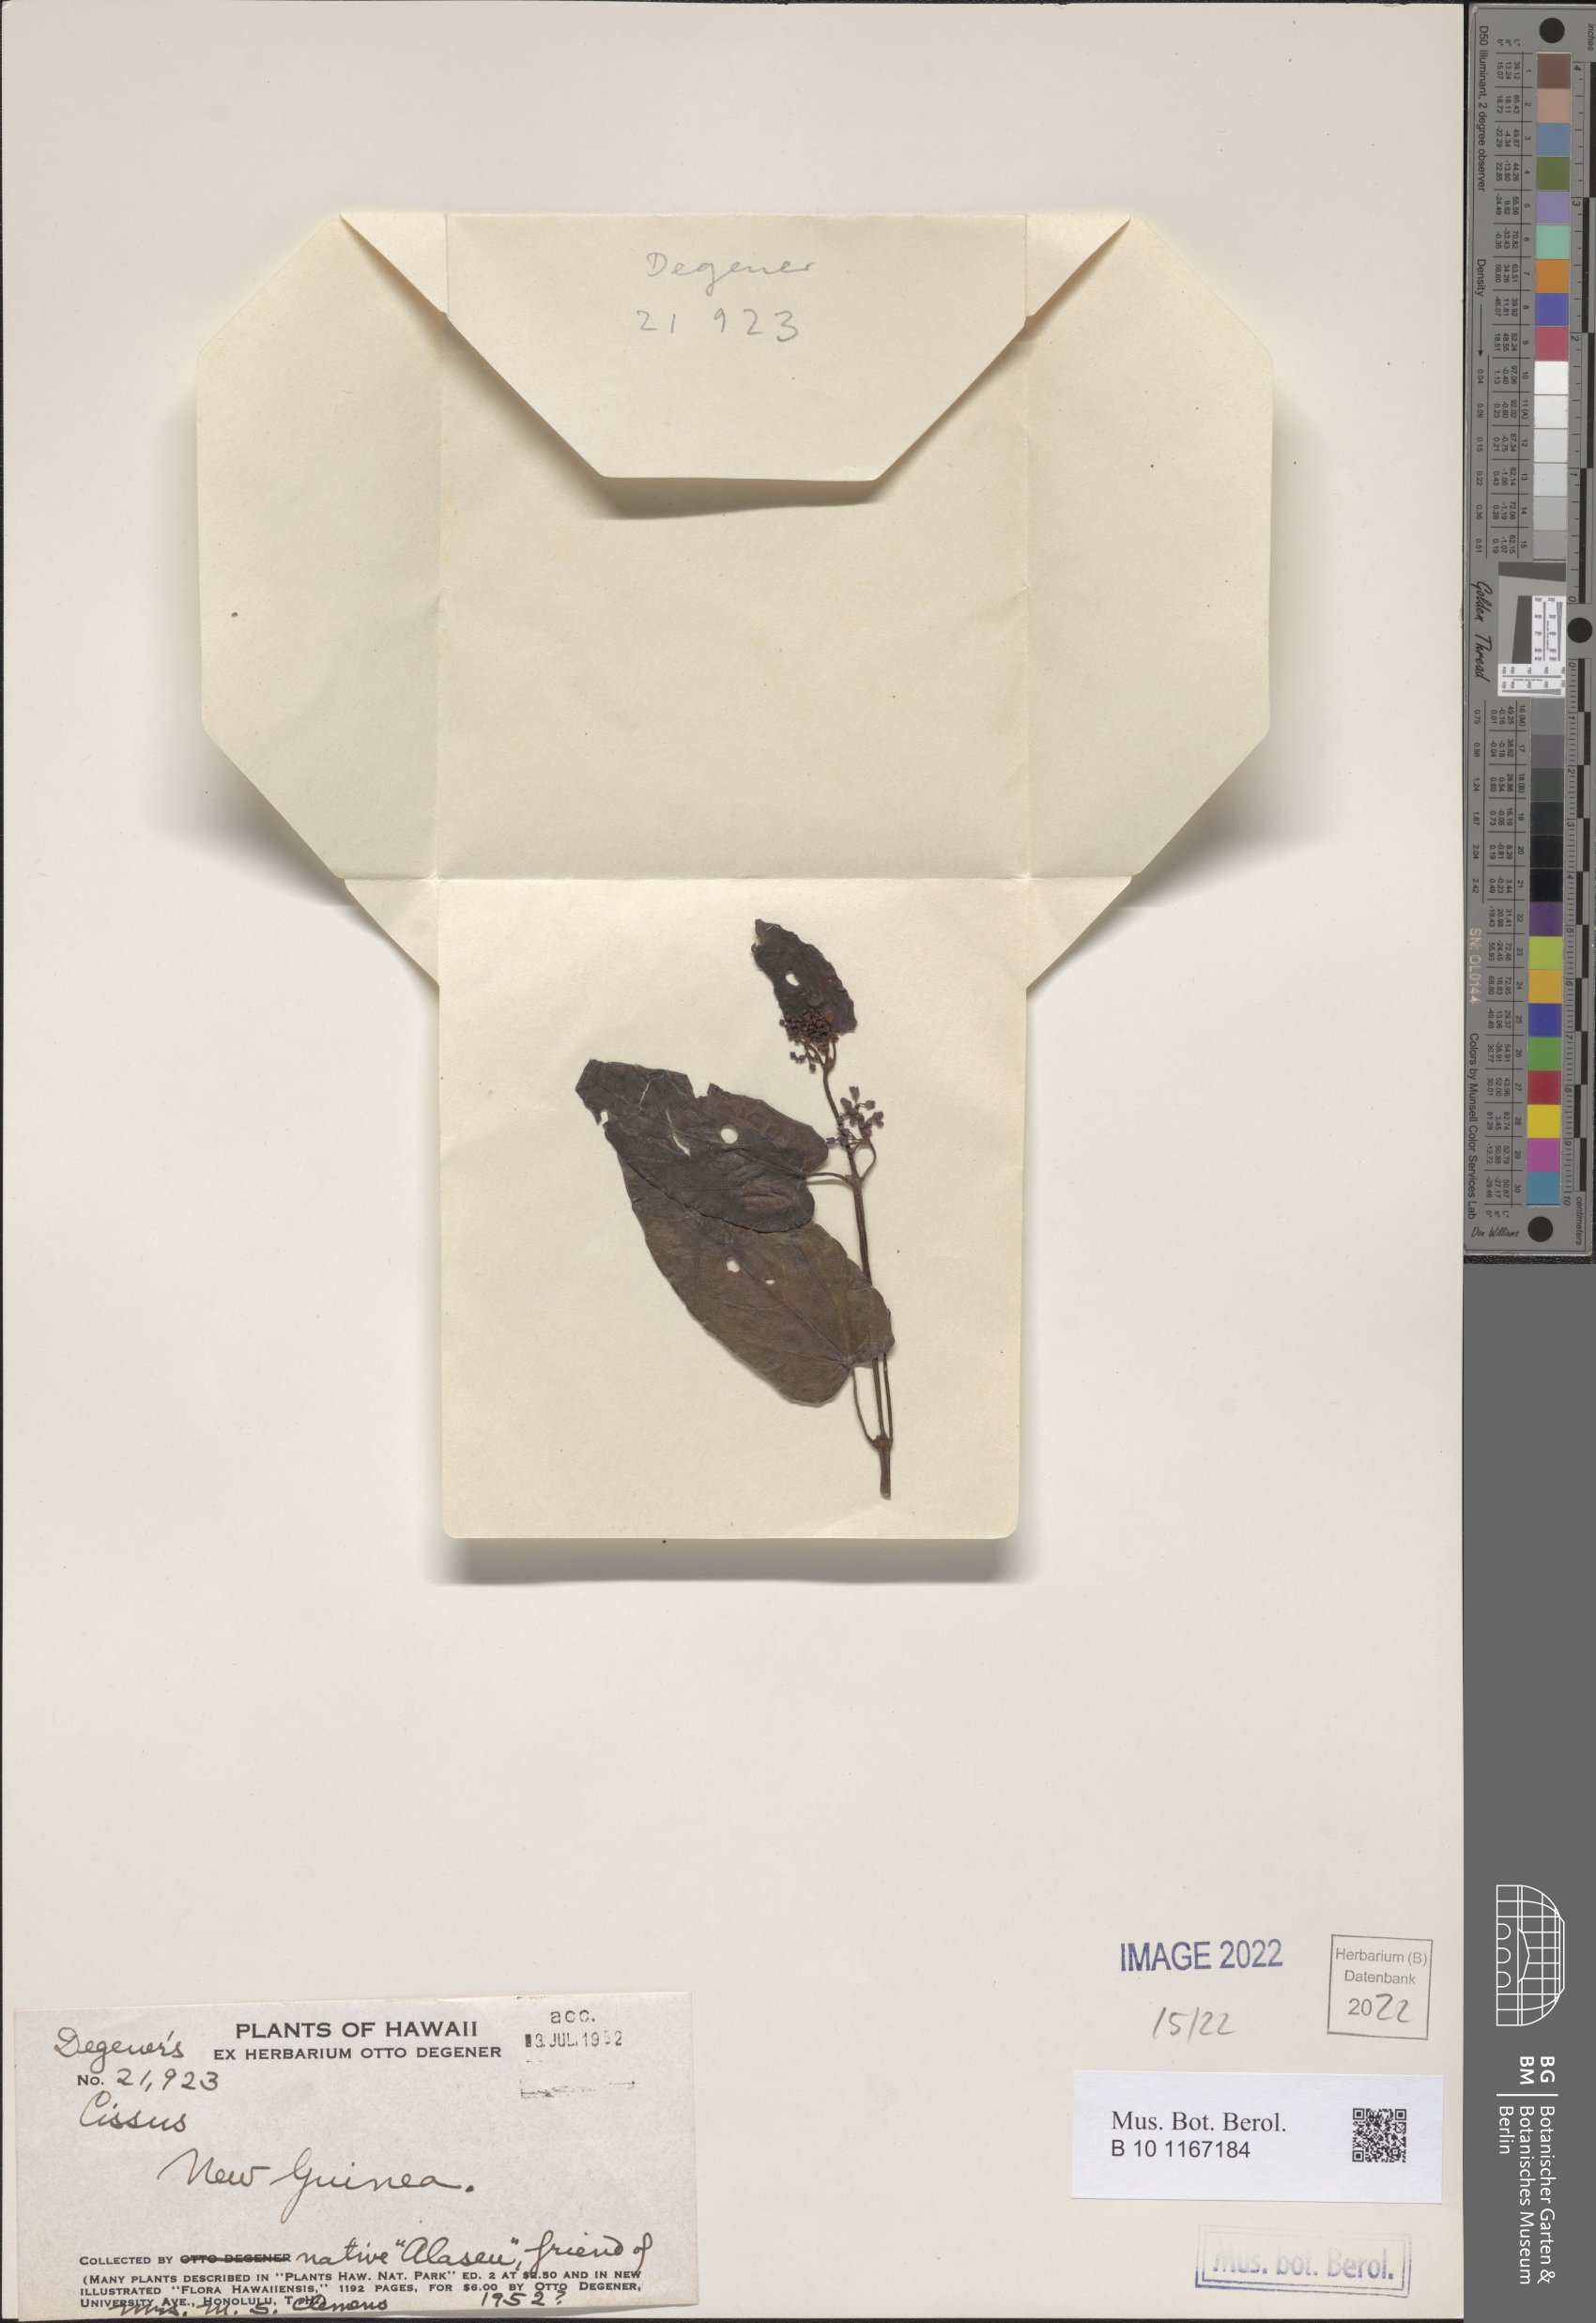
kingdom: Plantae
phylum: Tracheophyta
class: Magnoliopsida
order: Vitales
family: Vitaceae
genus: Cissus
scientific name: Cissus
